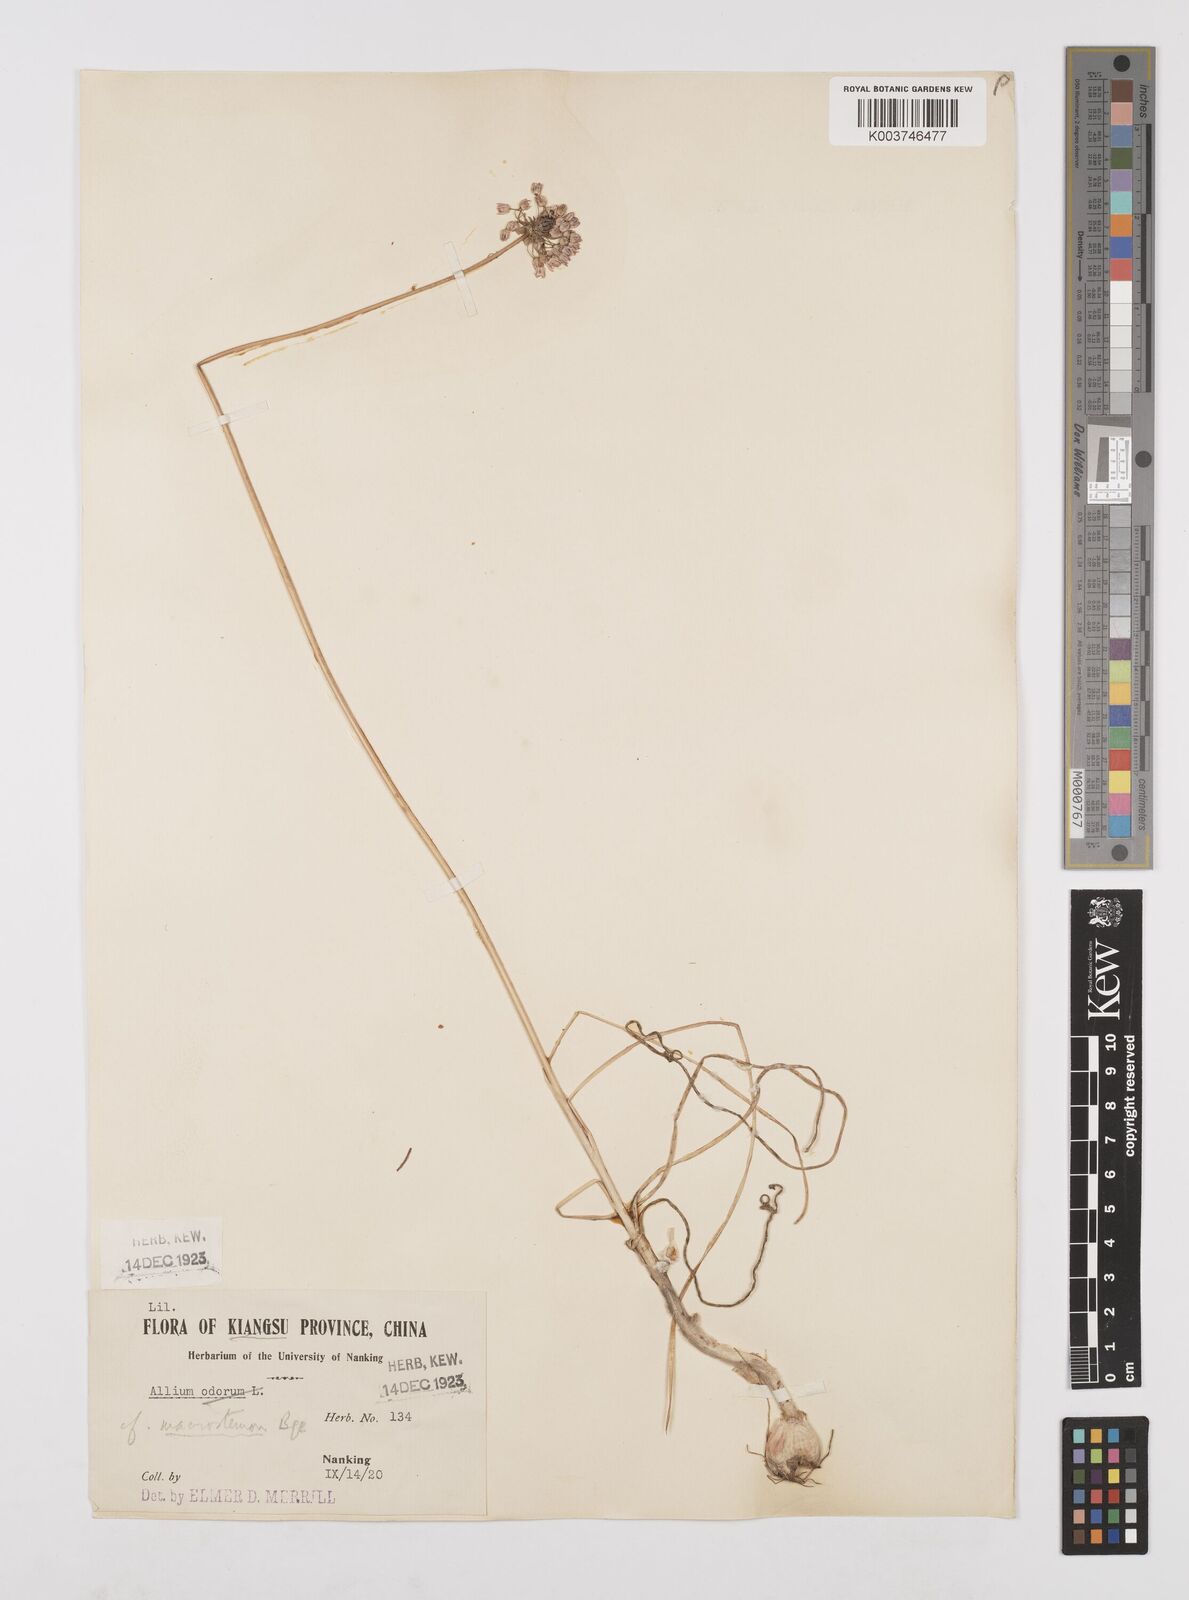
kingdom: Plantae
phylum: Tracheophyta
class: Liliopsida
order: Asparagales
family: Amaryllidaceae
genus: Allium
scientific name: Allium macrostemon
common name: Chinese garlic
